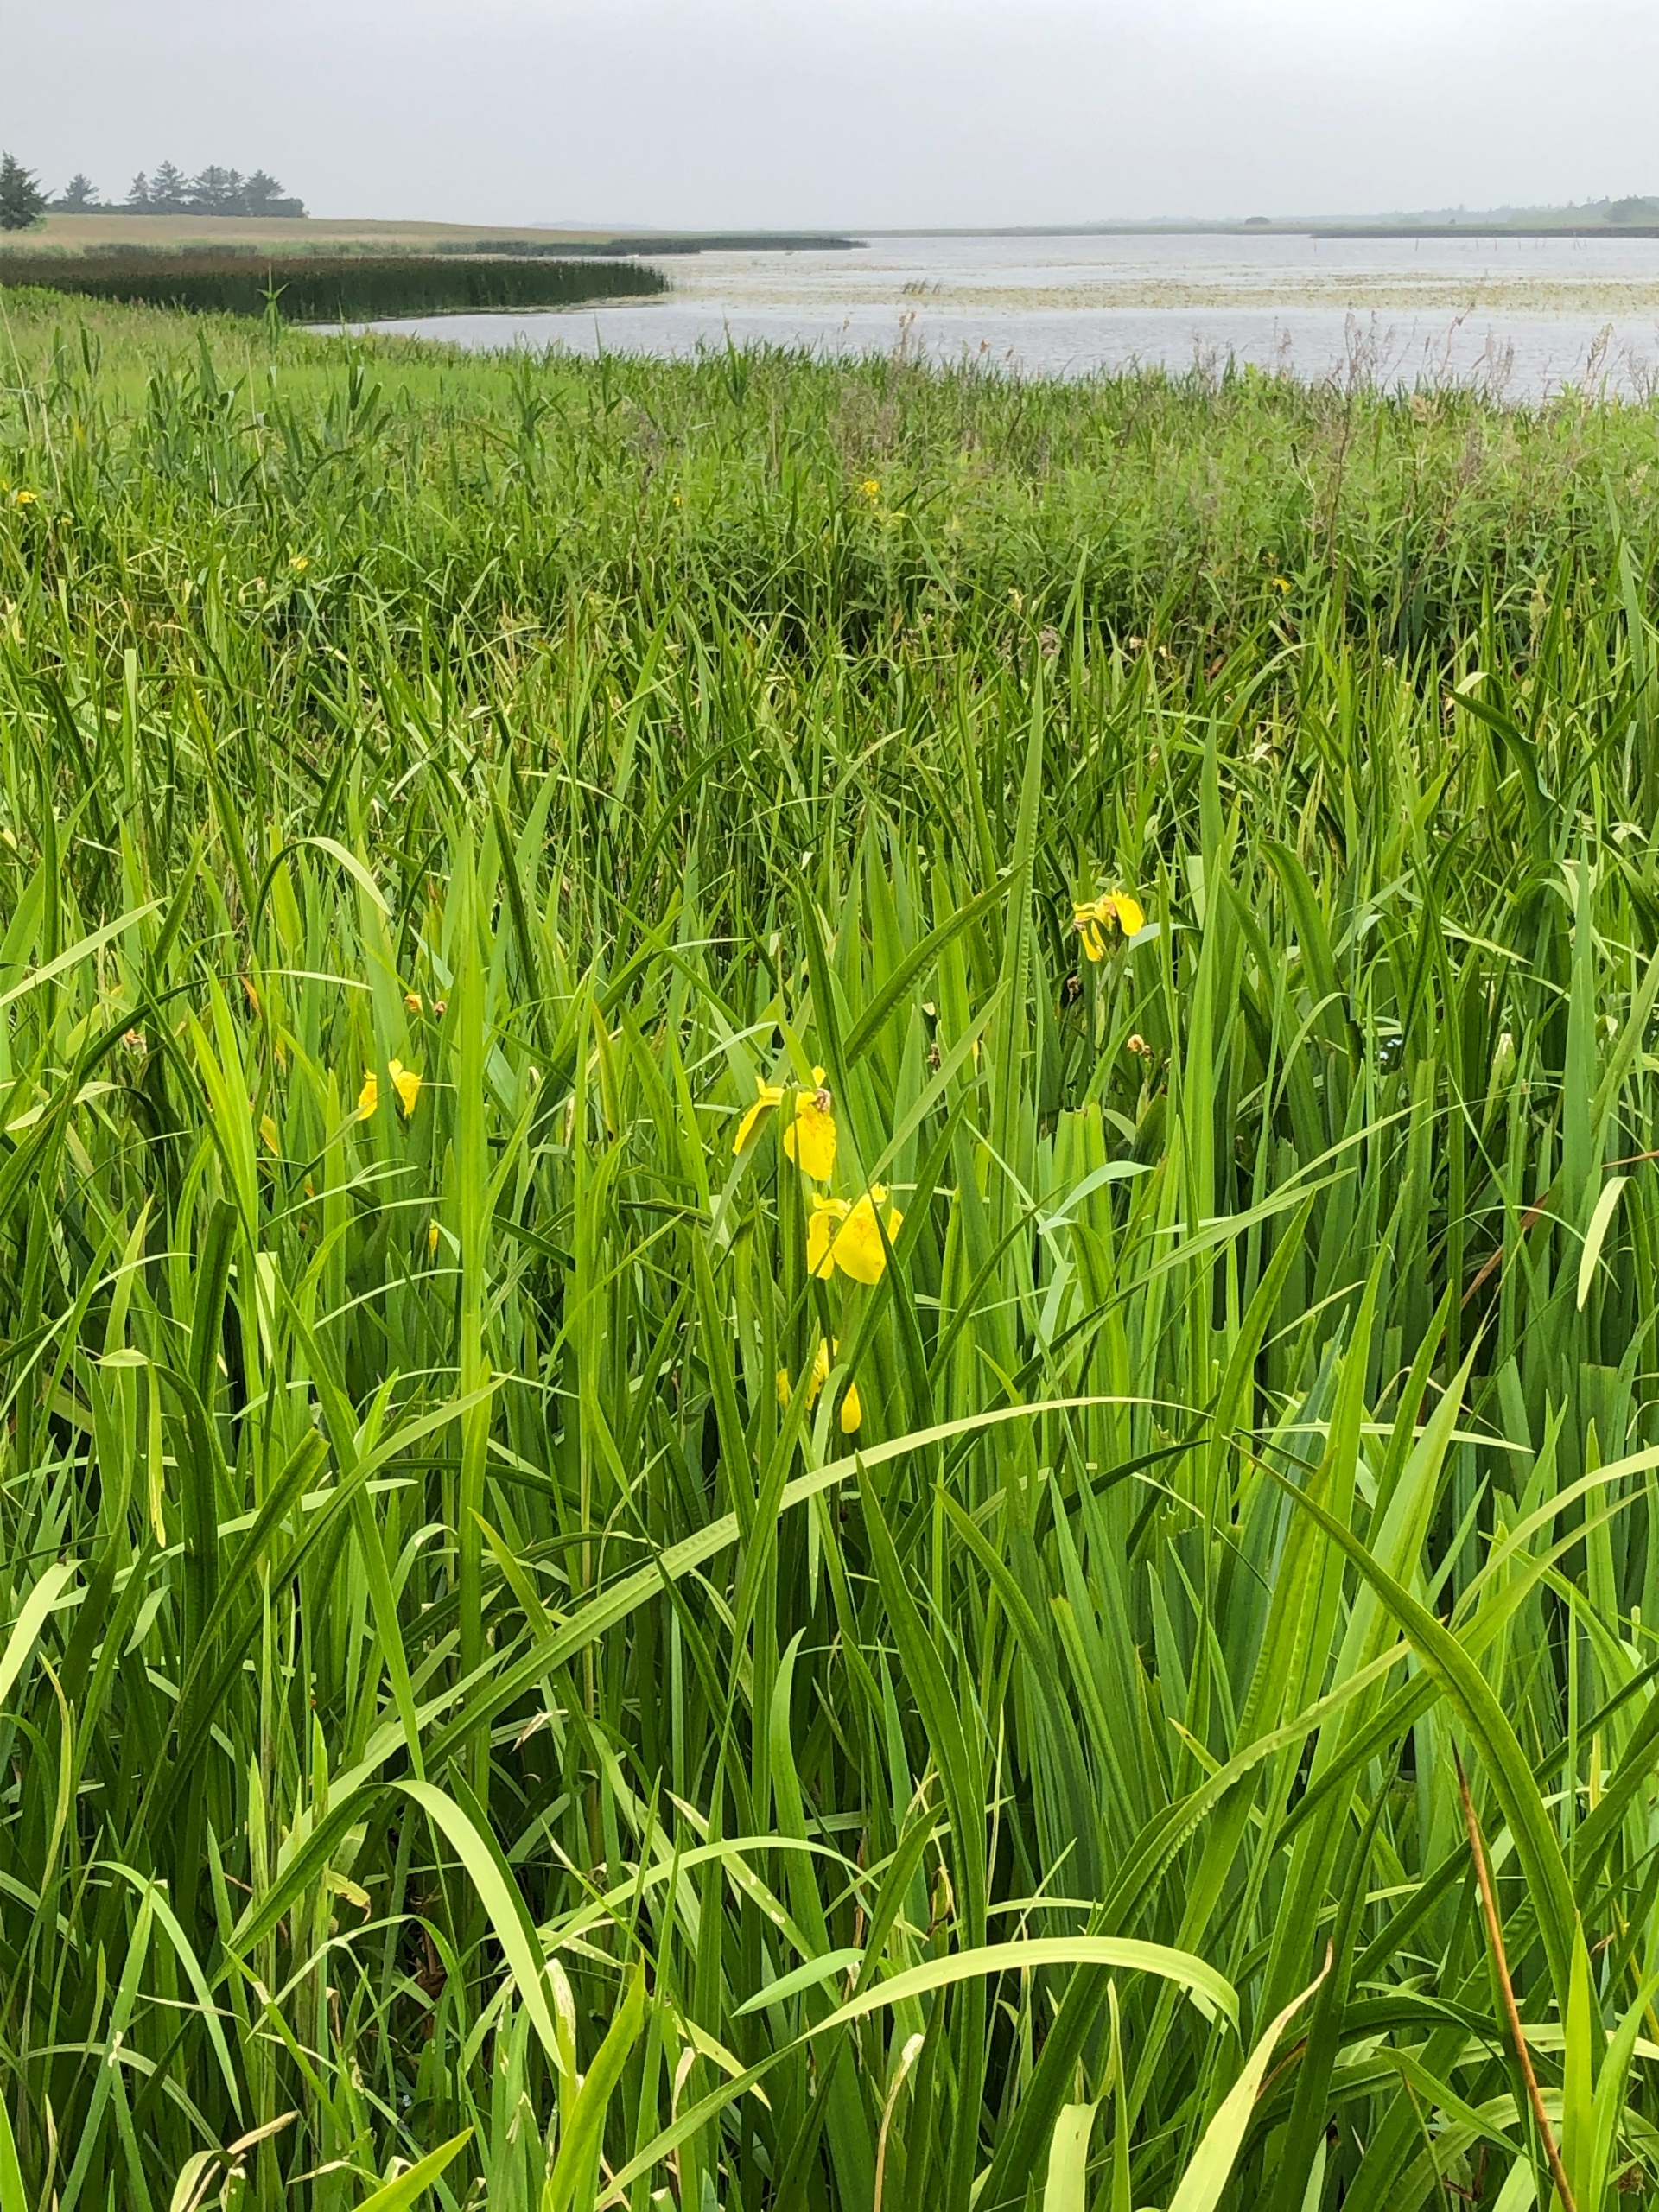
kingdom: Plantae
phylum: Tracheophyta
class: Liliopsida
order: Asparagales
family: Iridaceae
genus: Iris
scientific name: Iris pseudacorus
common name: Gul iris
